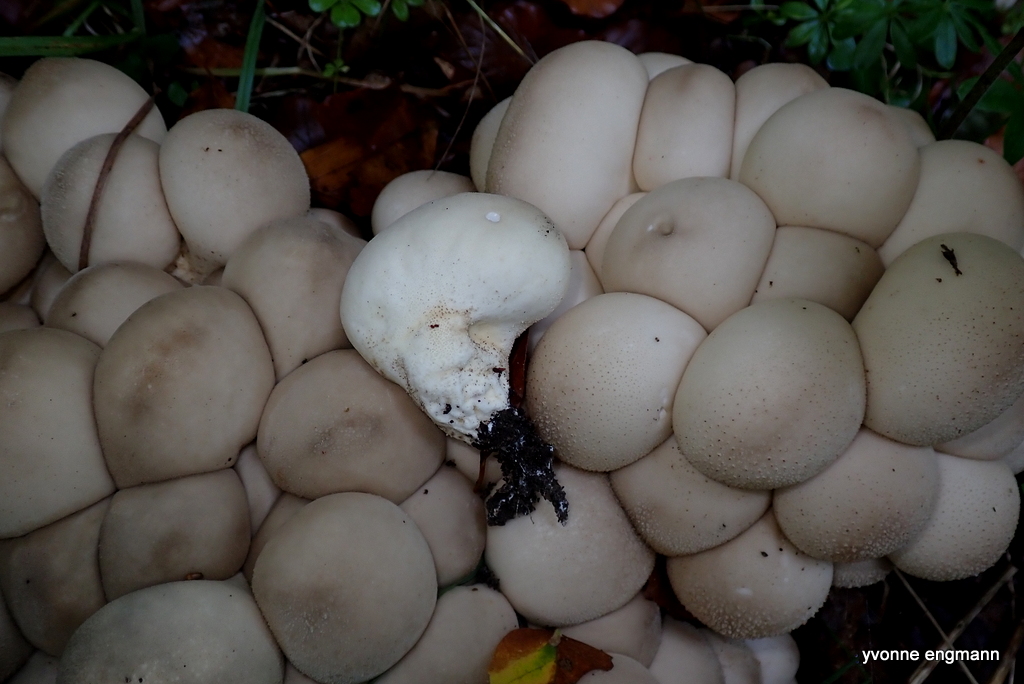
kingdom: Fungi
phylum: Basidiomycota
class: Agaricomycetes
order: Agaricales
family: Lycoperdaceae
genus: Apioperdon
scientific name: Apioperdon pyriforme
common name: pære-støvbold
